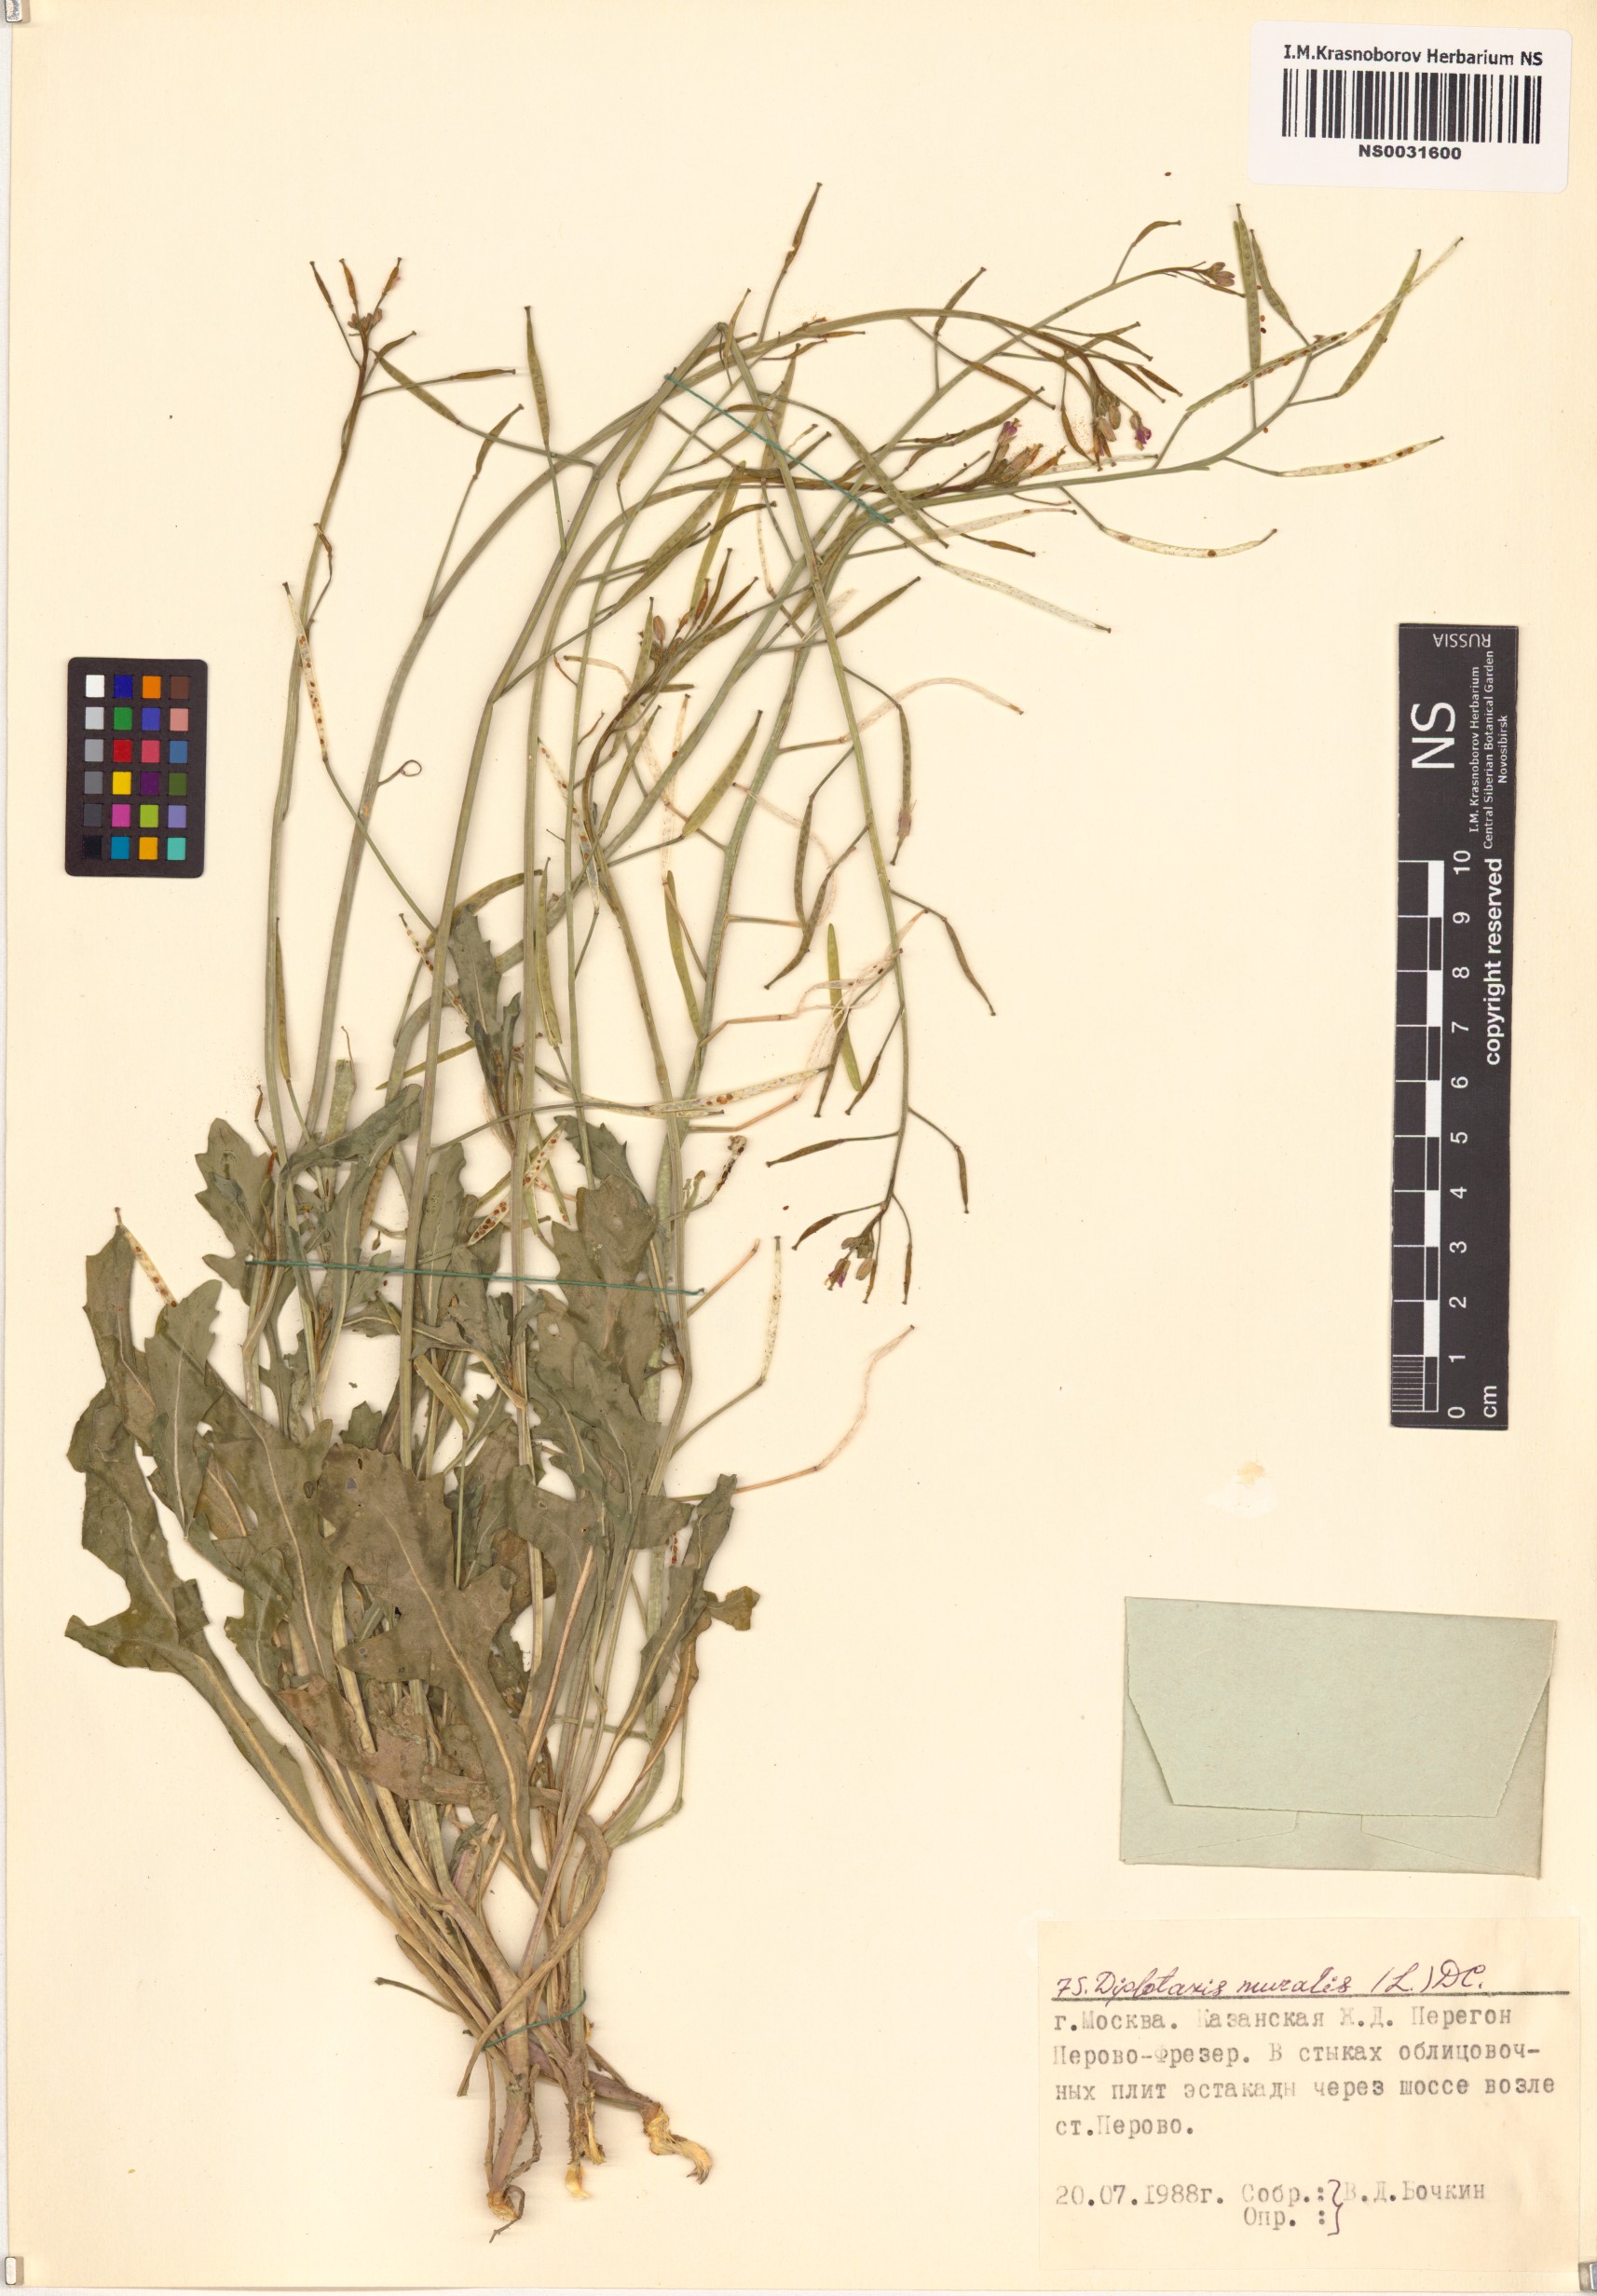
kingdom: Plantae
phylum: Tracheophyta
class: Magnoliopsida
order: Brassicales
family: Brassicaceae
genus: Diplotaxis
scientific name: Diplotaxis muralis
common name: Annual wall-rocket
